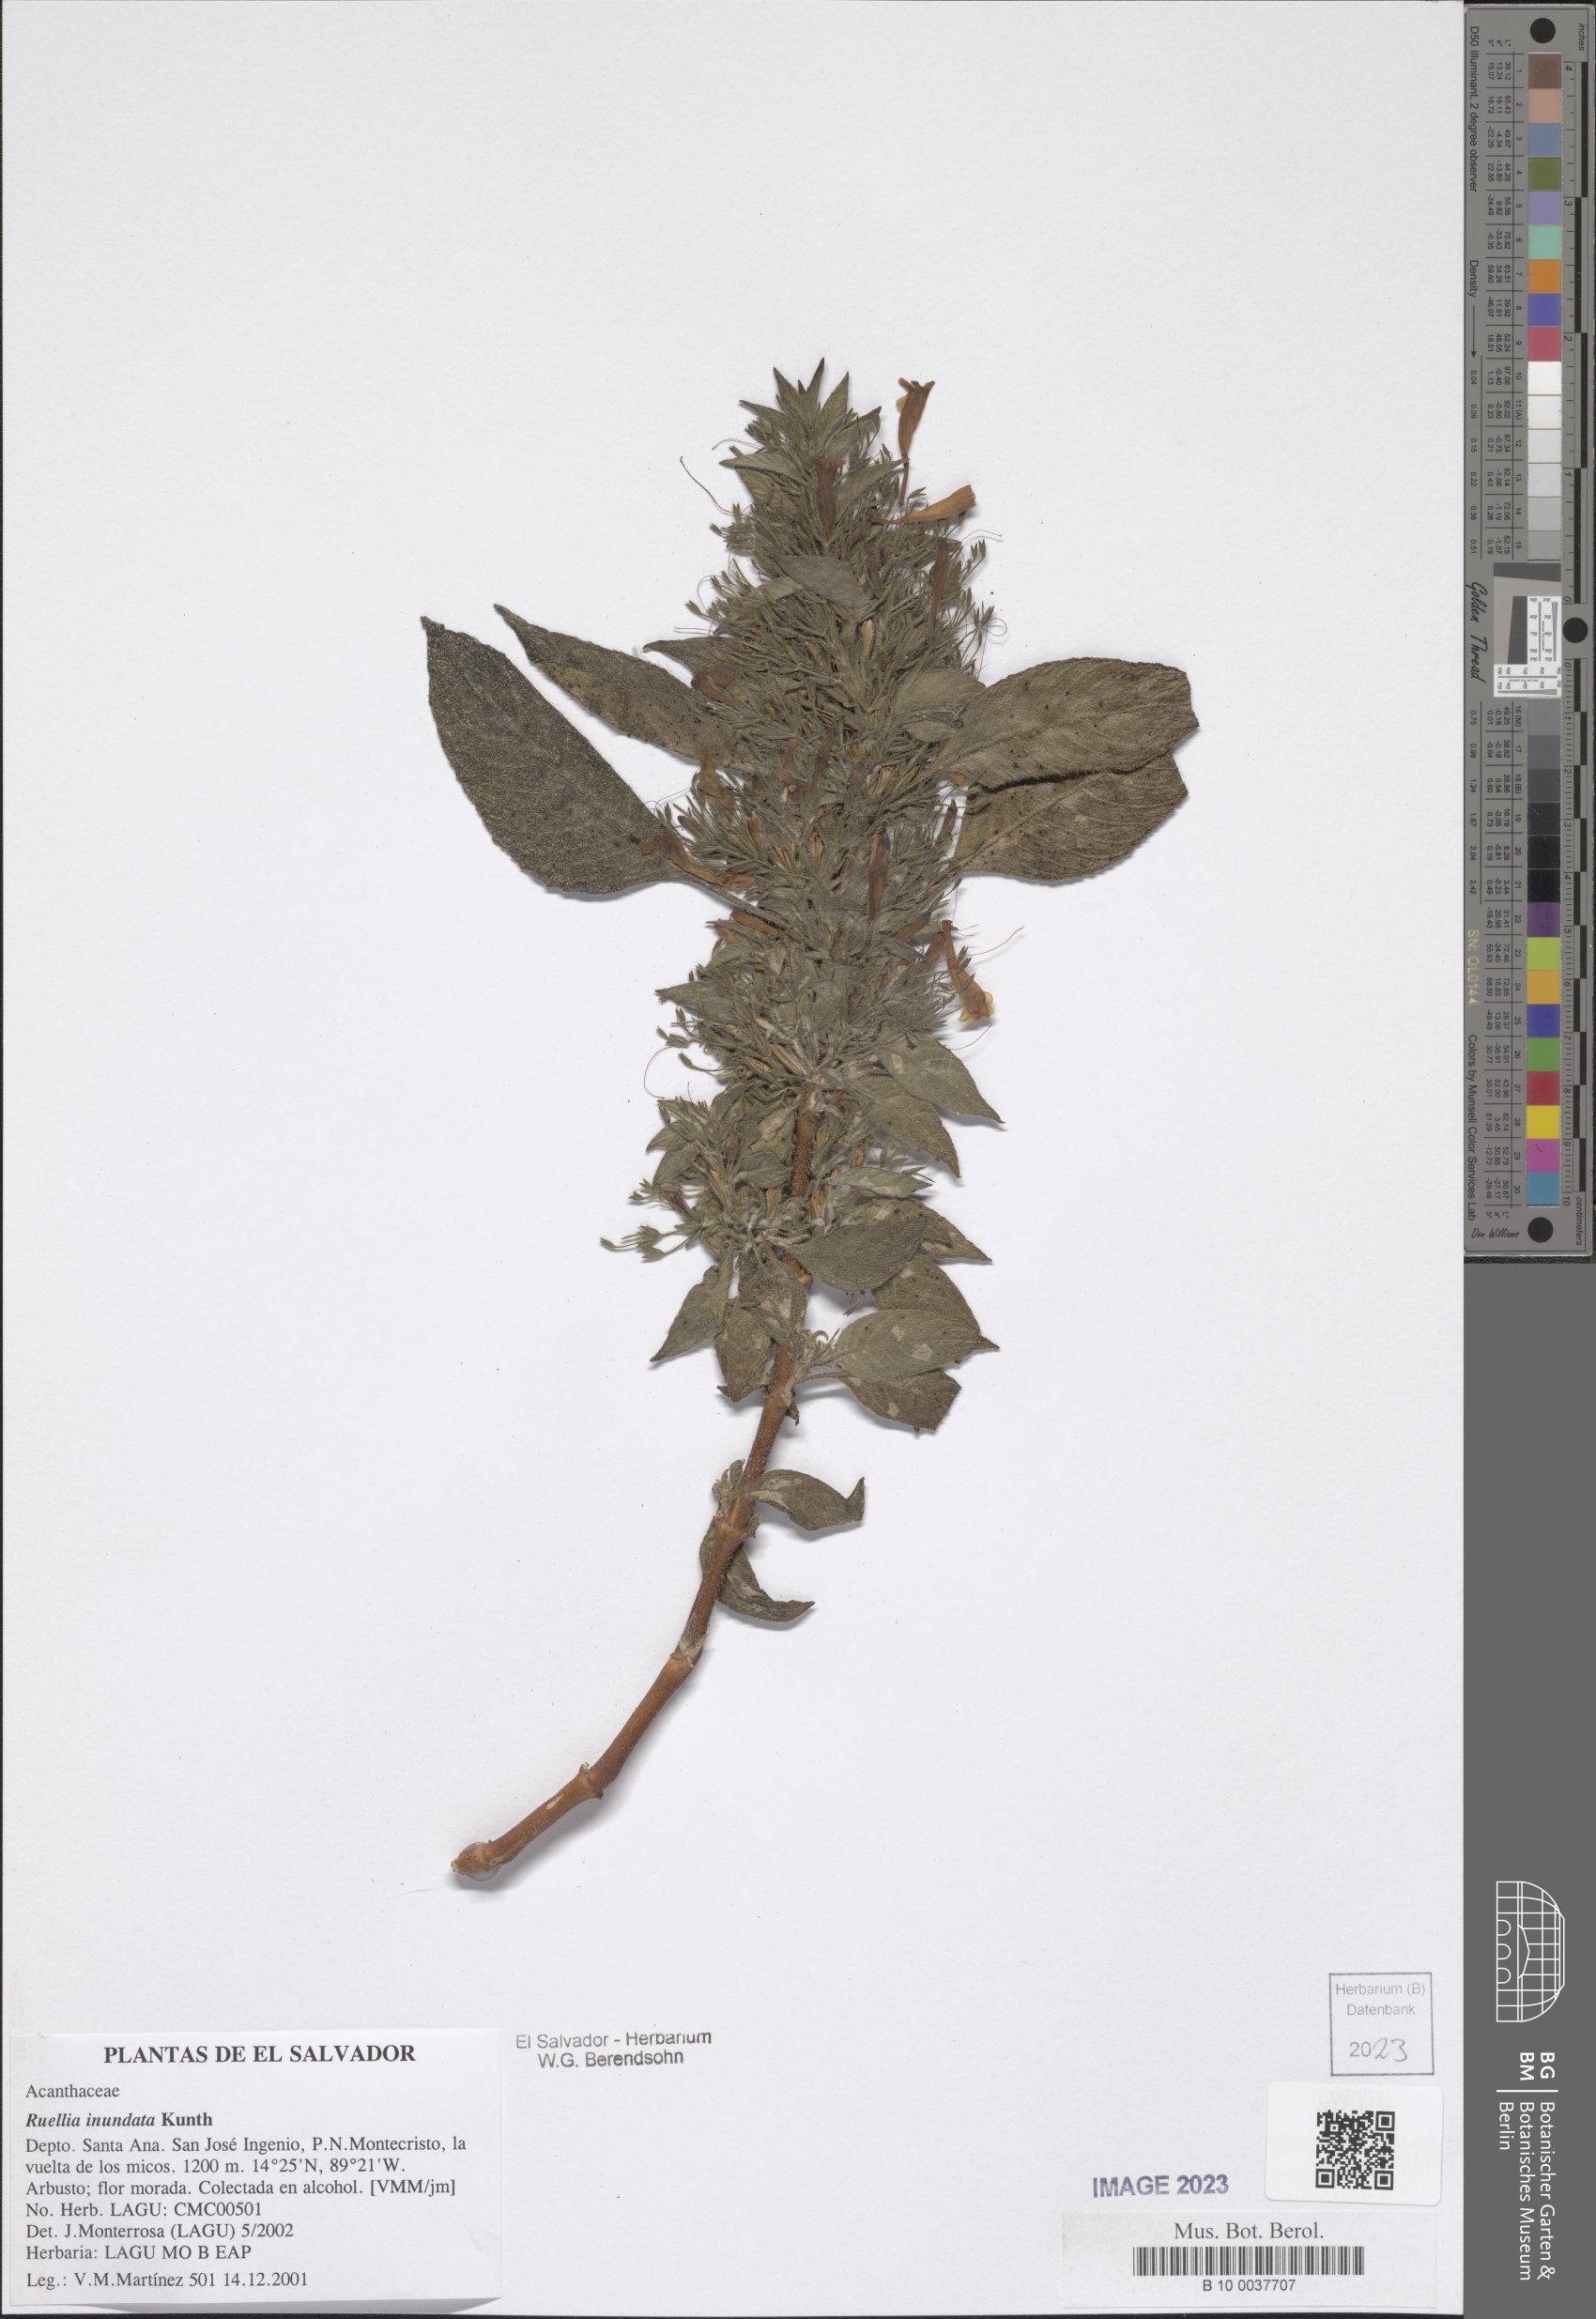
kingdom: Plantae
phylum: Tracheophyta
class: Magnoliopsida
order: Lamiales
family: Acanthaceae
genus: Ruellia
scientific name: Ruellia inundata
